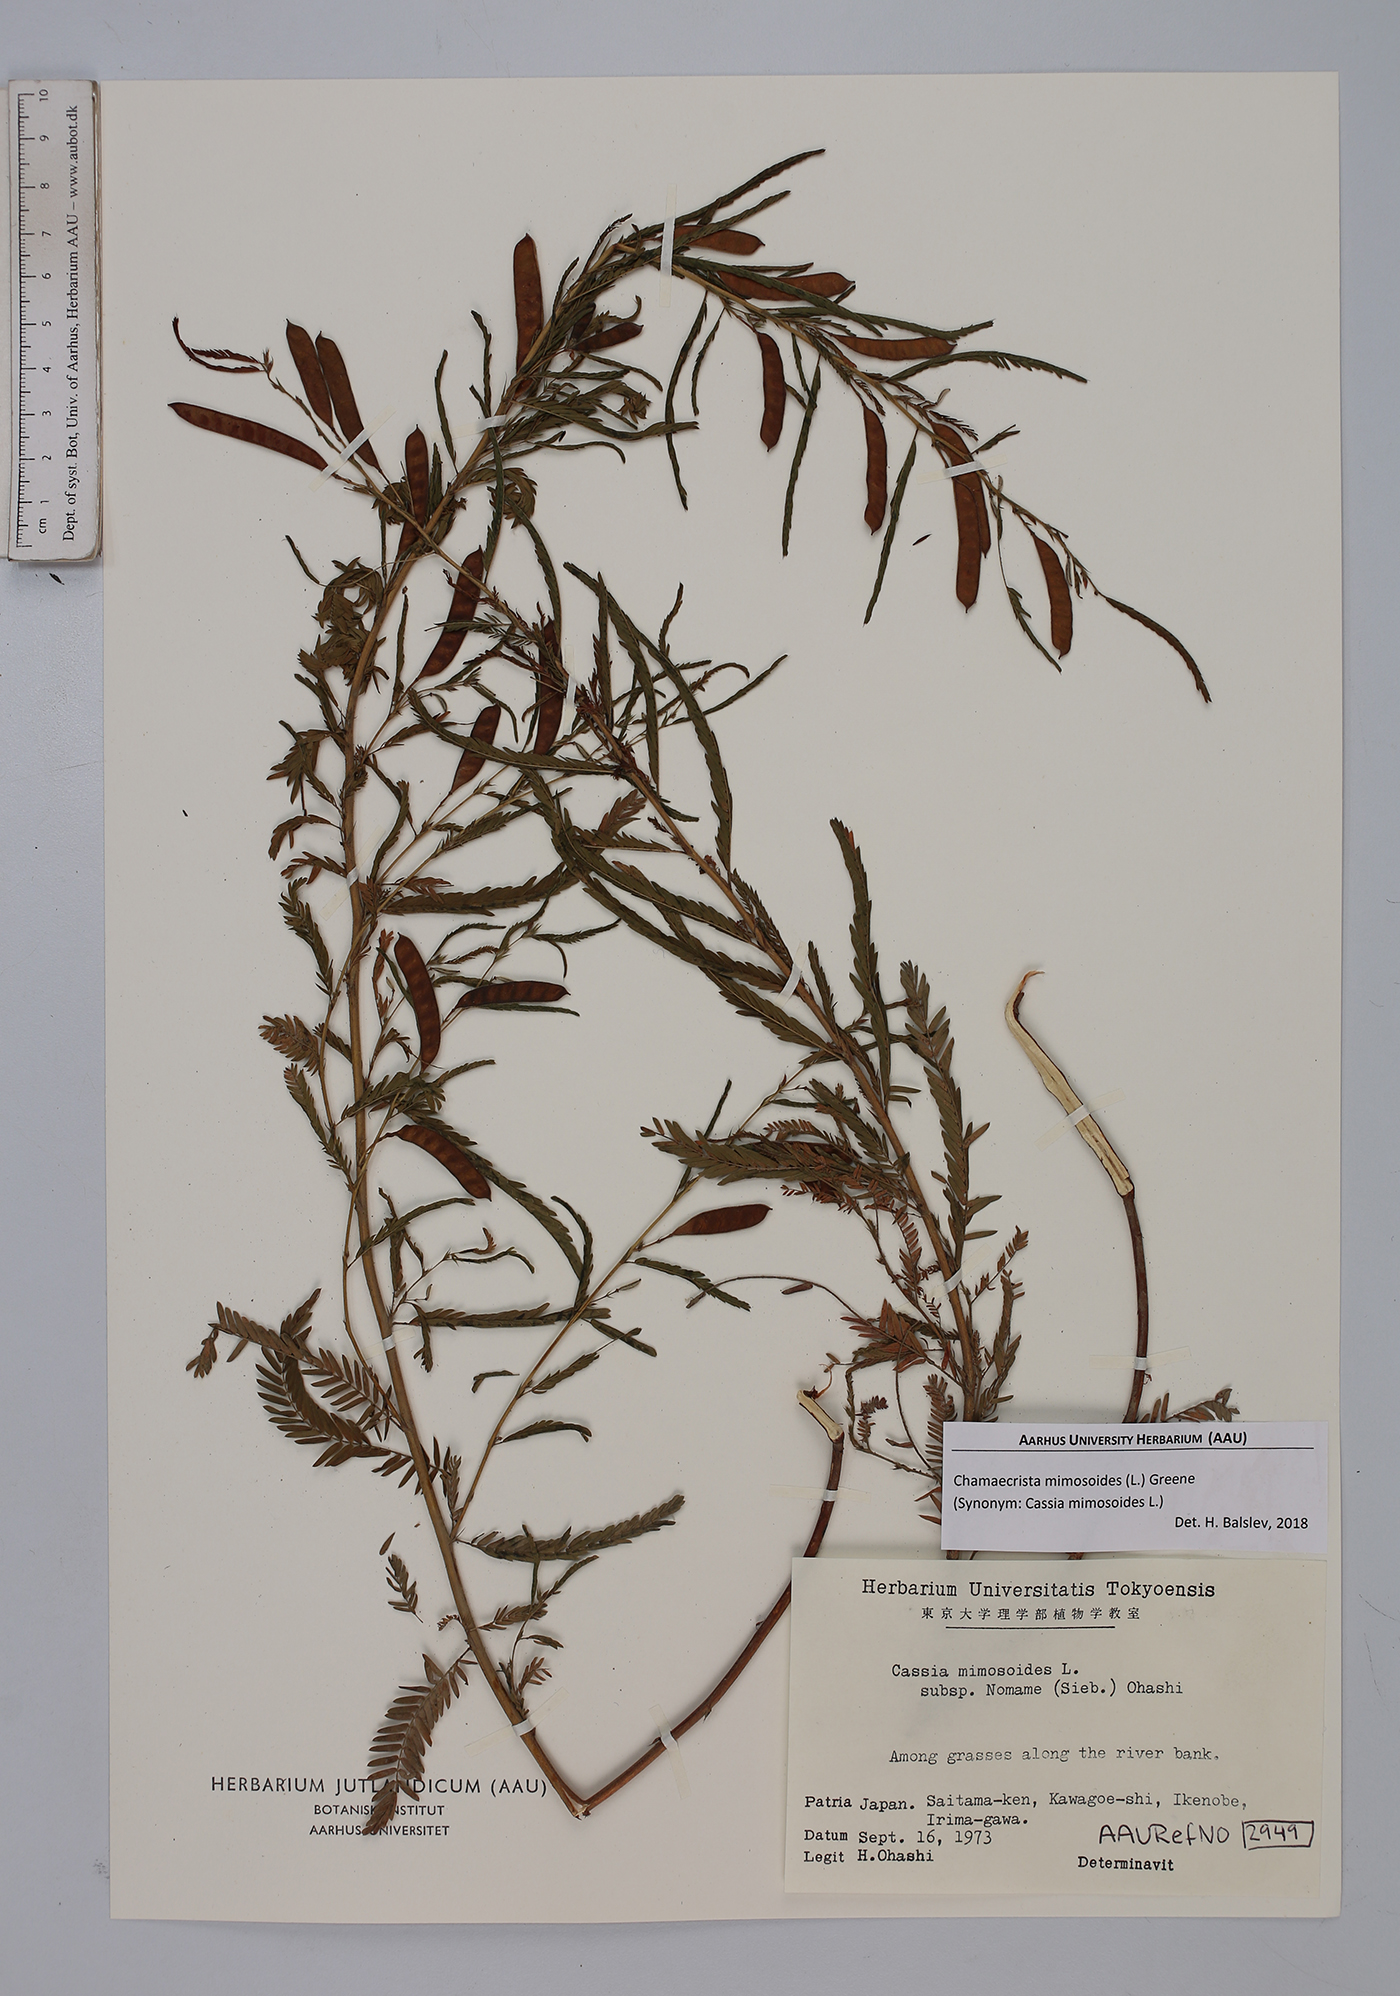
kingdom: Plantae
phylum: Tracheophyta
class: Magnoliopsida
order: Fabales
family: Fabaceae
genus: Chamaecrista
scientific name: Chamaecrista mimosoides
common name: Fish-bone cassia
